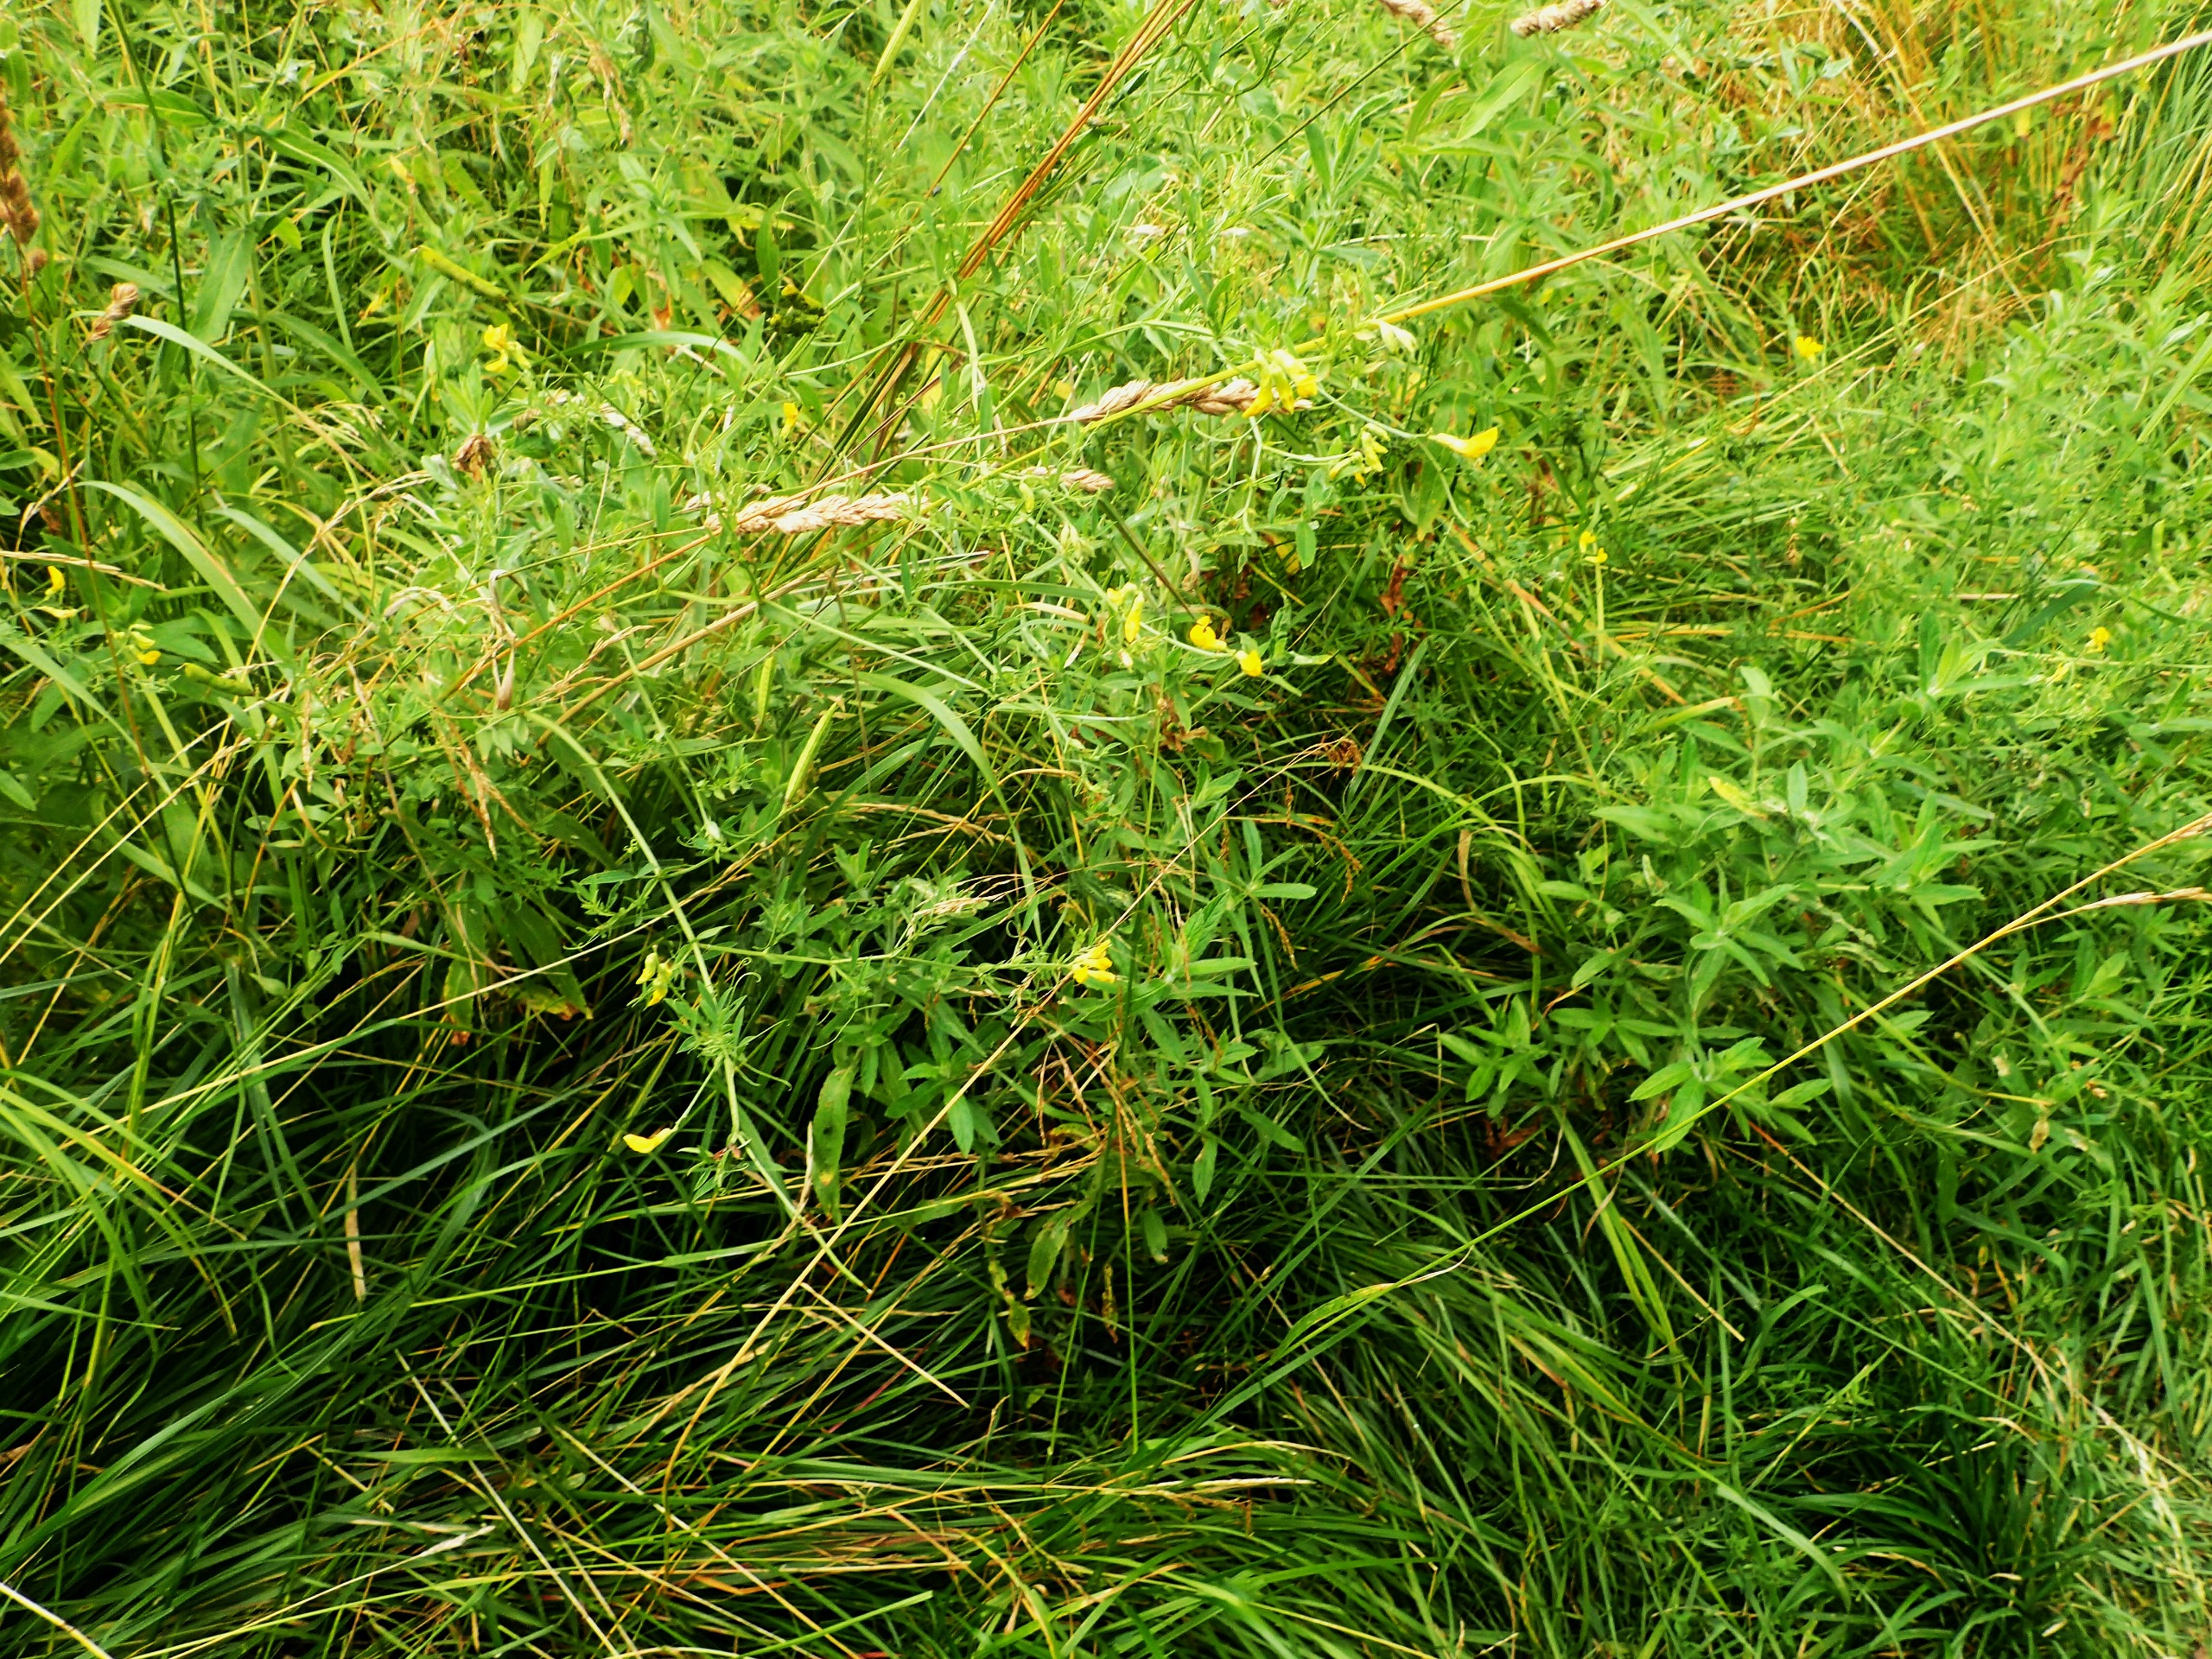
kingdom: Plantae
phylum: Tracheophyta
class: Magnoliopsida
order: Fabales
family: Fabaceae
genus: Lathyrus
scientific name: Lathyrus pratensis
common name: Gul fladbælg
